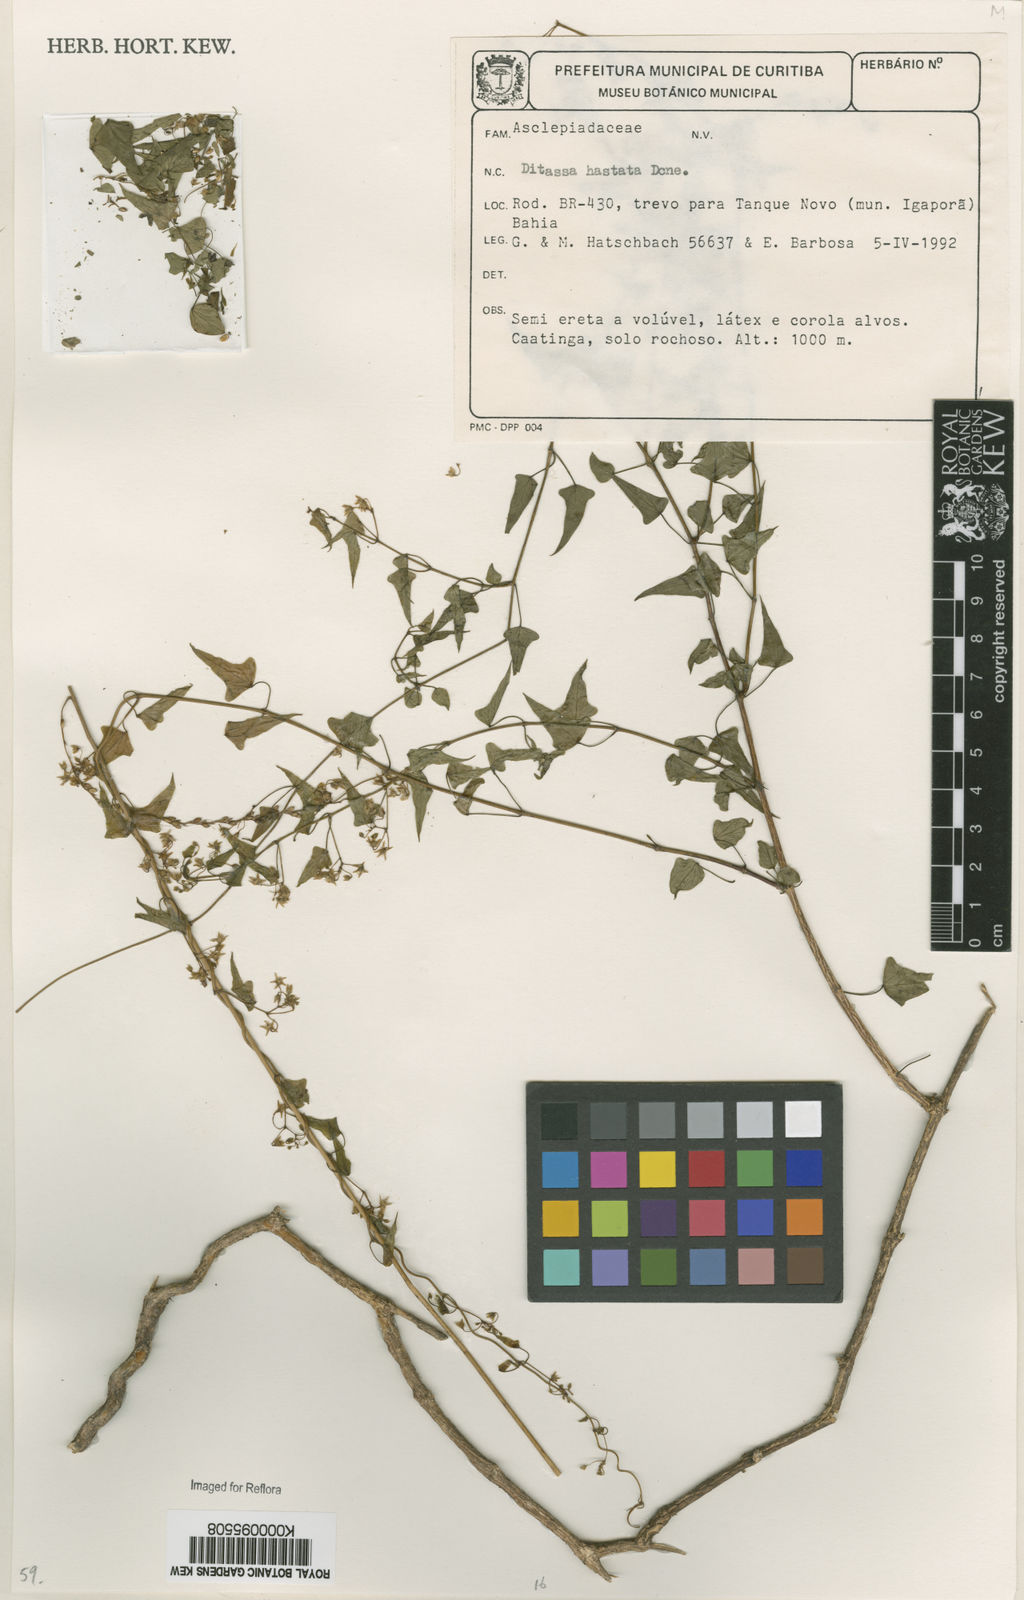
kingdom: Plantae
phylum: Tracheophyta
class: Magnoliopsida
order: Gentianales
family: Apocynaceae
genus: Ditassa
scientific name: Ditassa hastata
